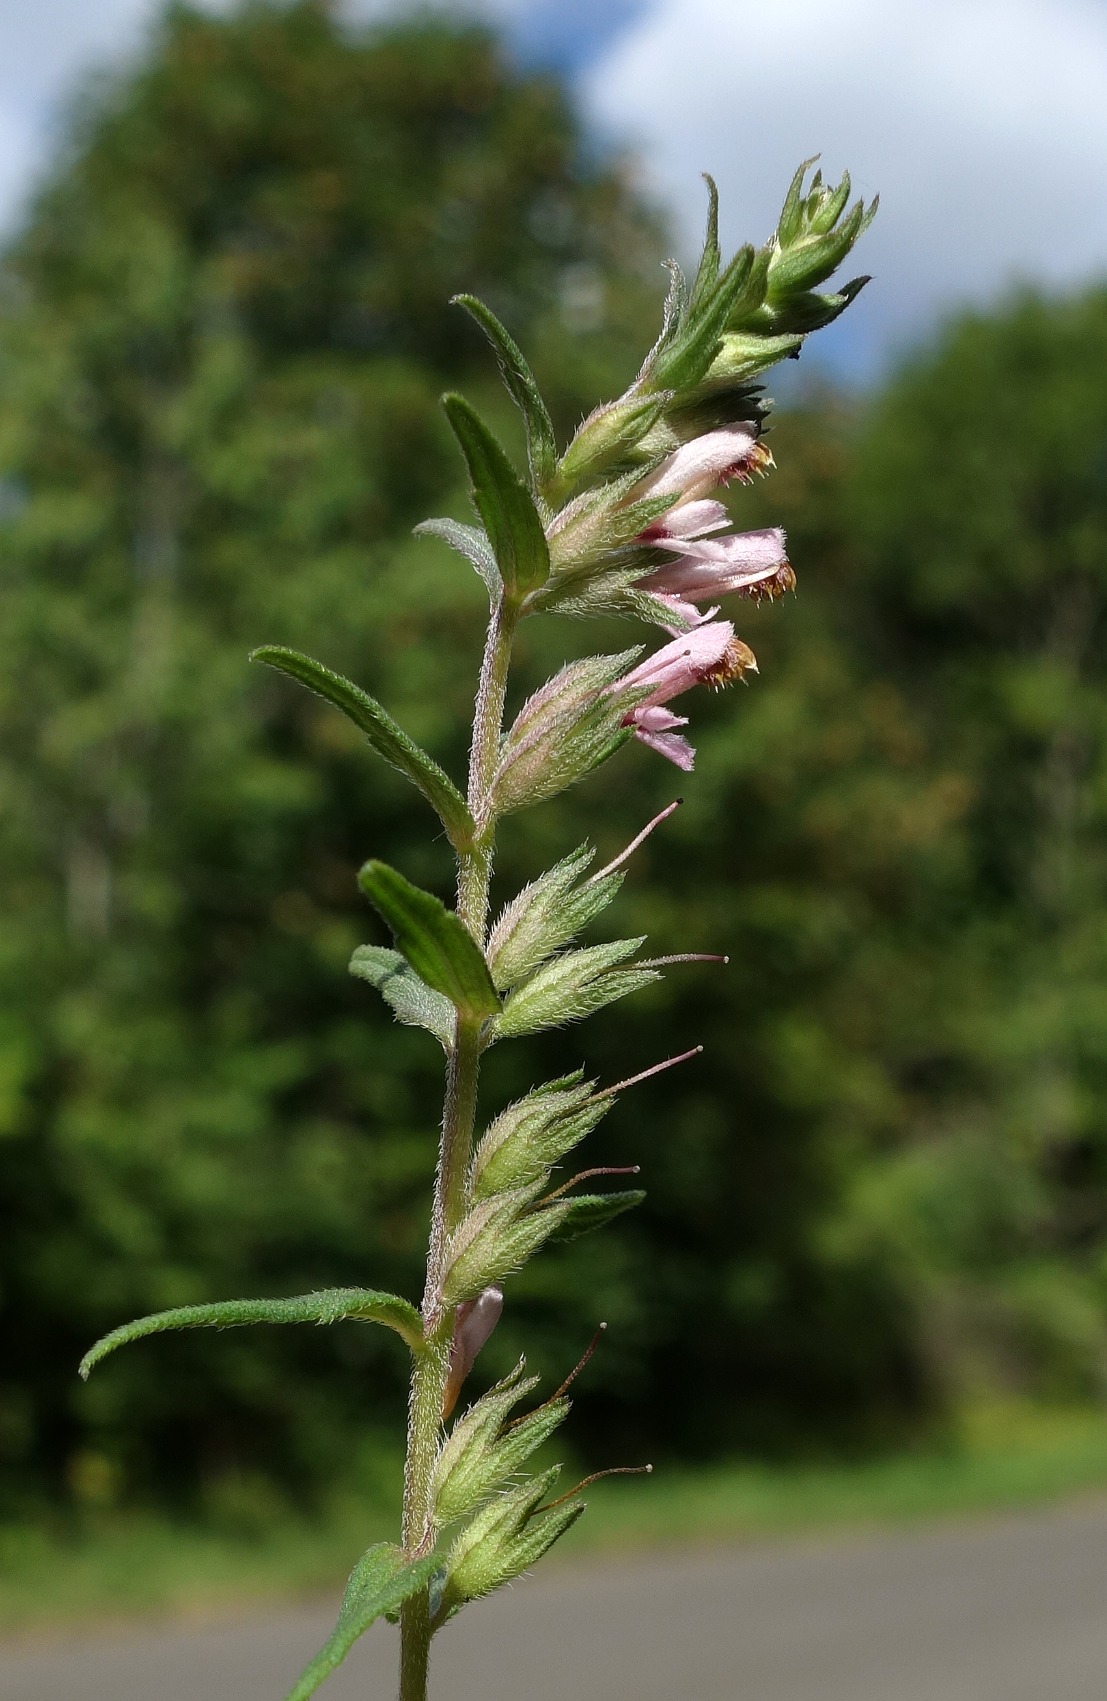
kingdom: Plantae
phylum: Tracheophyta
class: Magnoliopsida
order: Lamiales
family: Orobanchaceae
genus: Odontites
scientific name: Odontites
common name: Rødtopslægten
